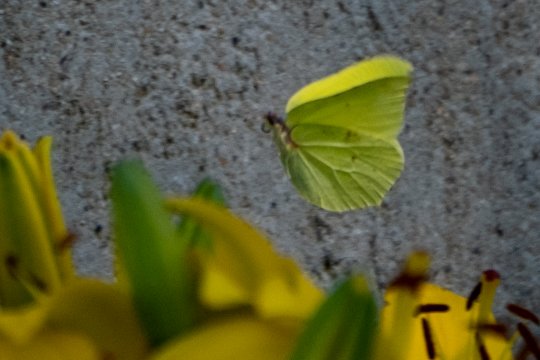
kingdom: Animalia
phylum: Arthropoda
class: Insecta
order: Lepidoptera
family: Pieridae
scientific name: Pieridae
